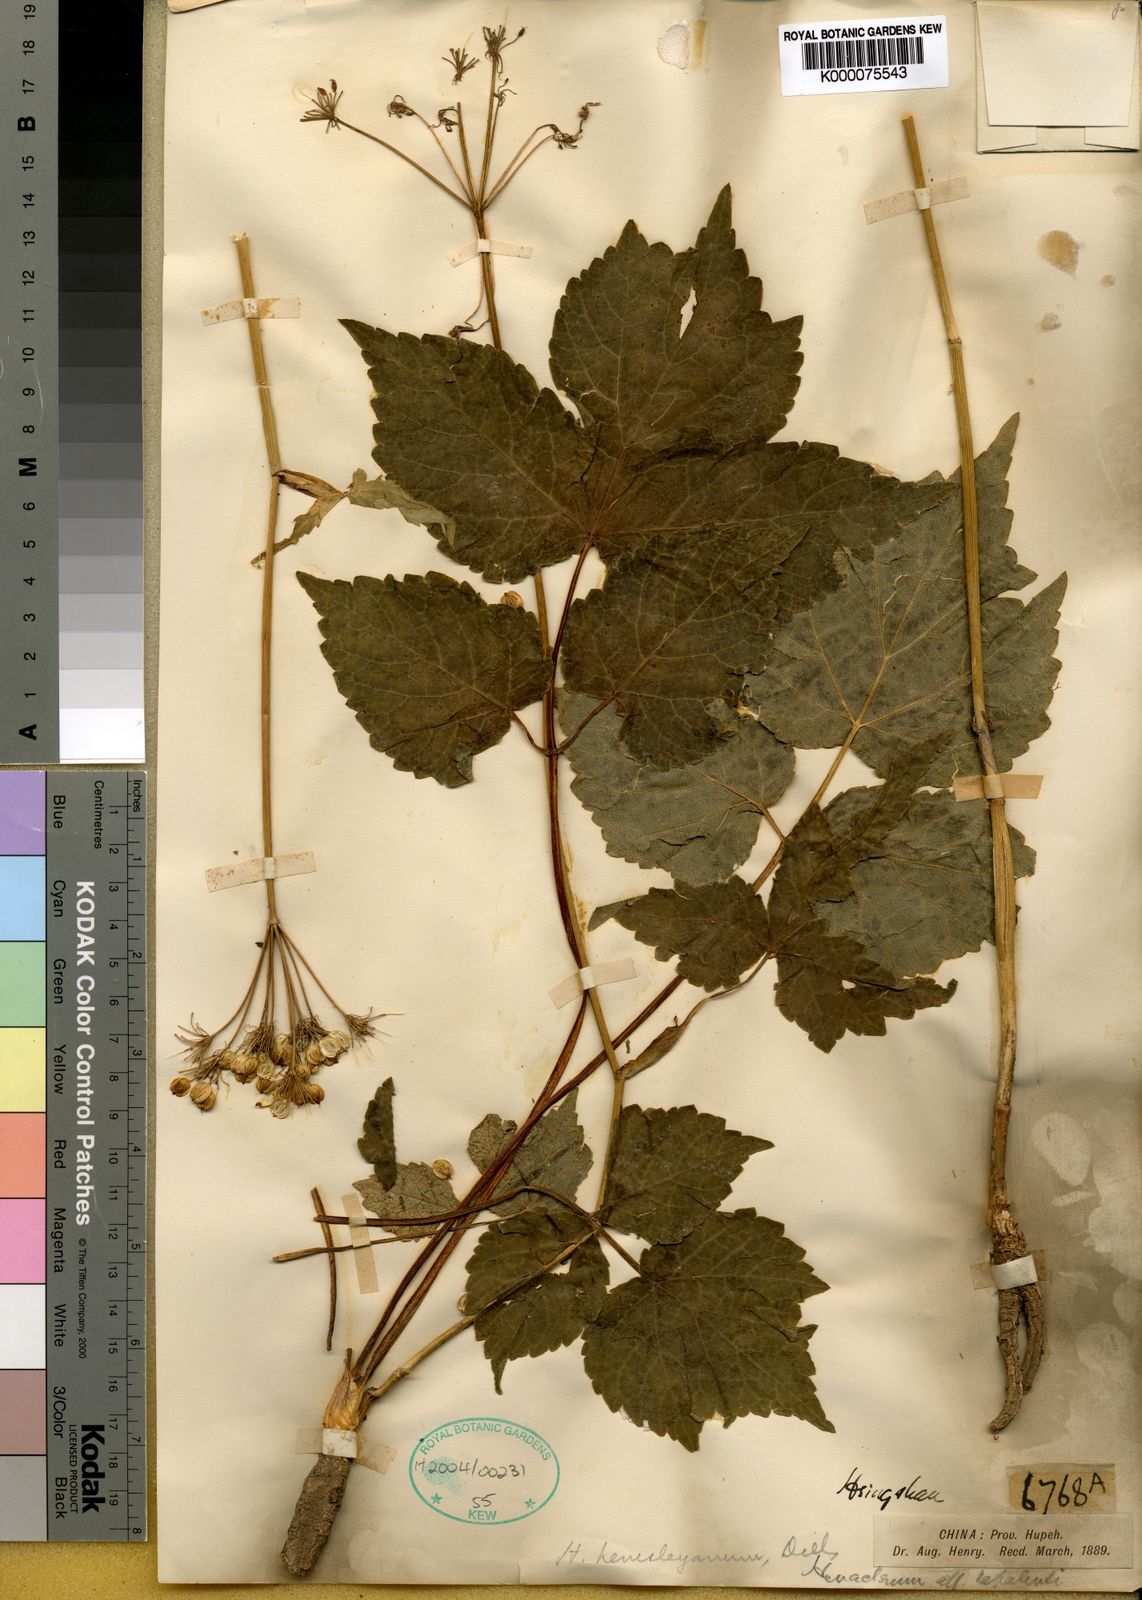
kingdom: Plantae
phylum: Tracheophyta
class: Magnoliopsida
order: Apiales
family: Apiaceae
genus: Heracleum
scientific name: Heracleum hemsleyanum
